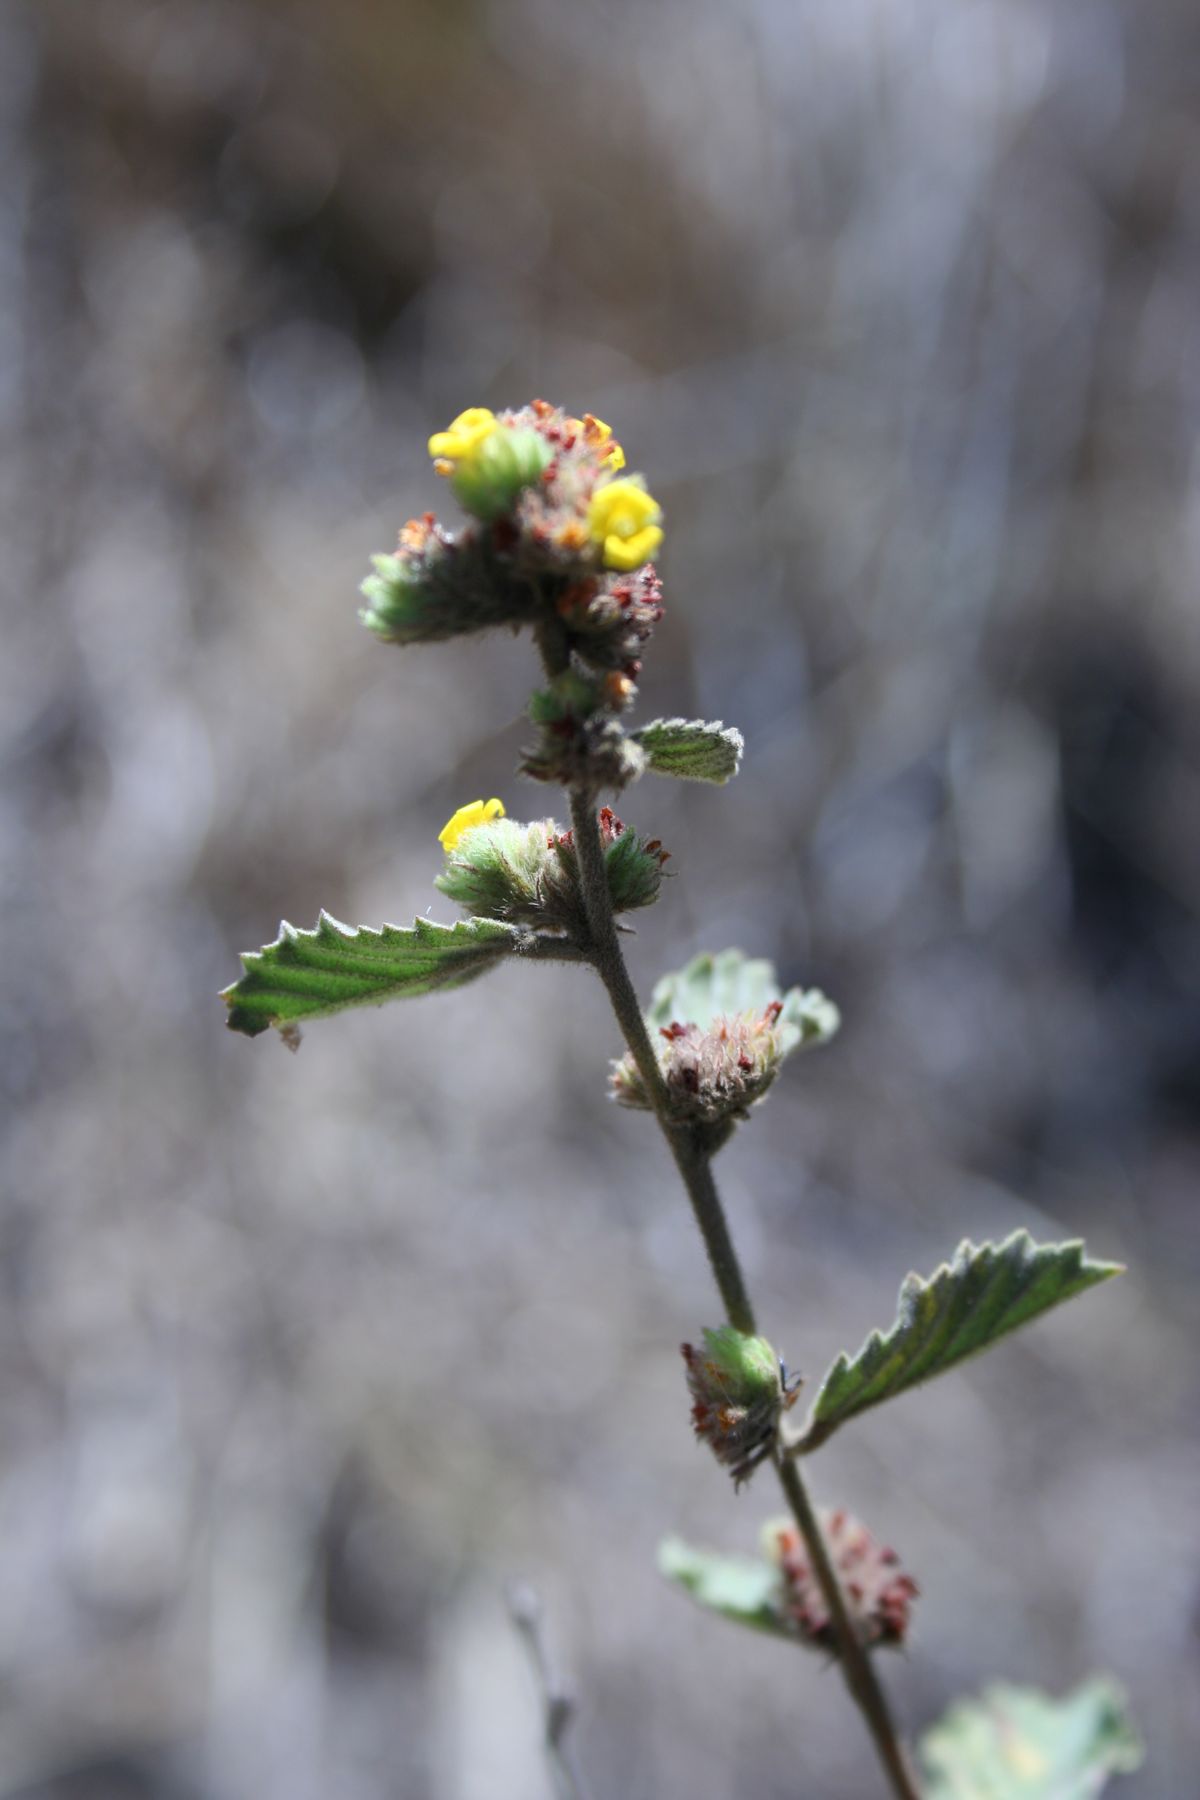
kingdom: Plantae
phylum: Tracheophyta
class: Magnoliopsida
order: Malvales
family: Malvaceae
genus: Waltheria
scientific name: Waltheria indica
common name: Leather-coat
